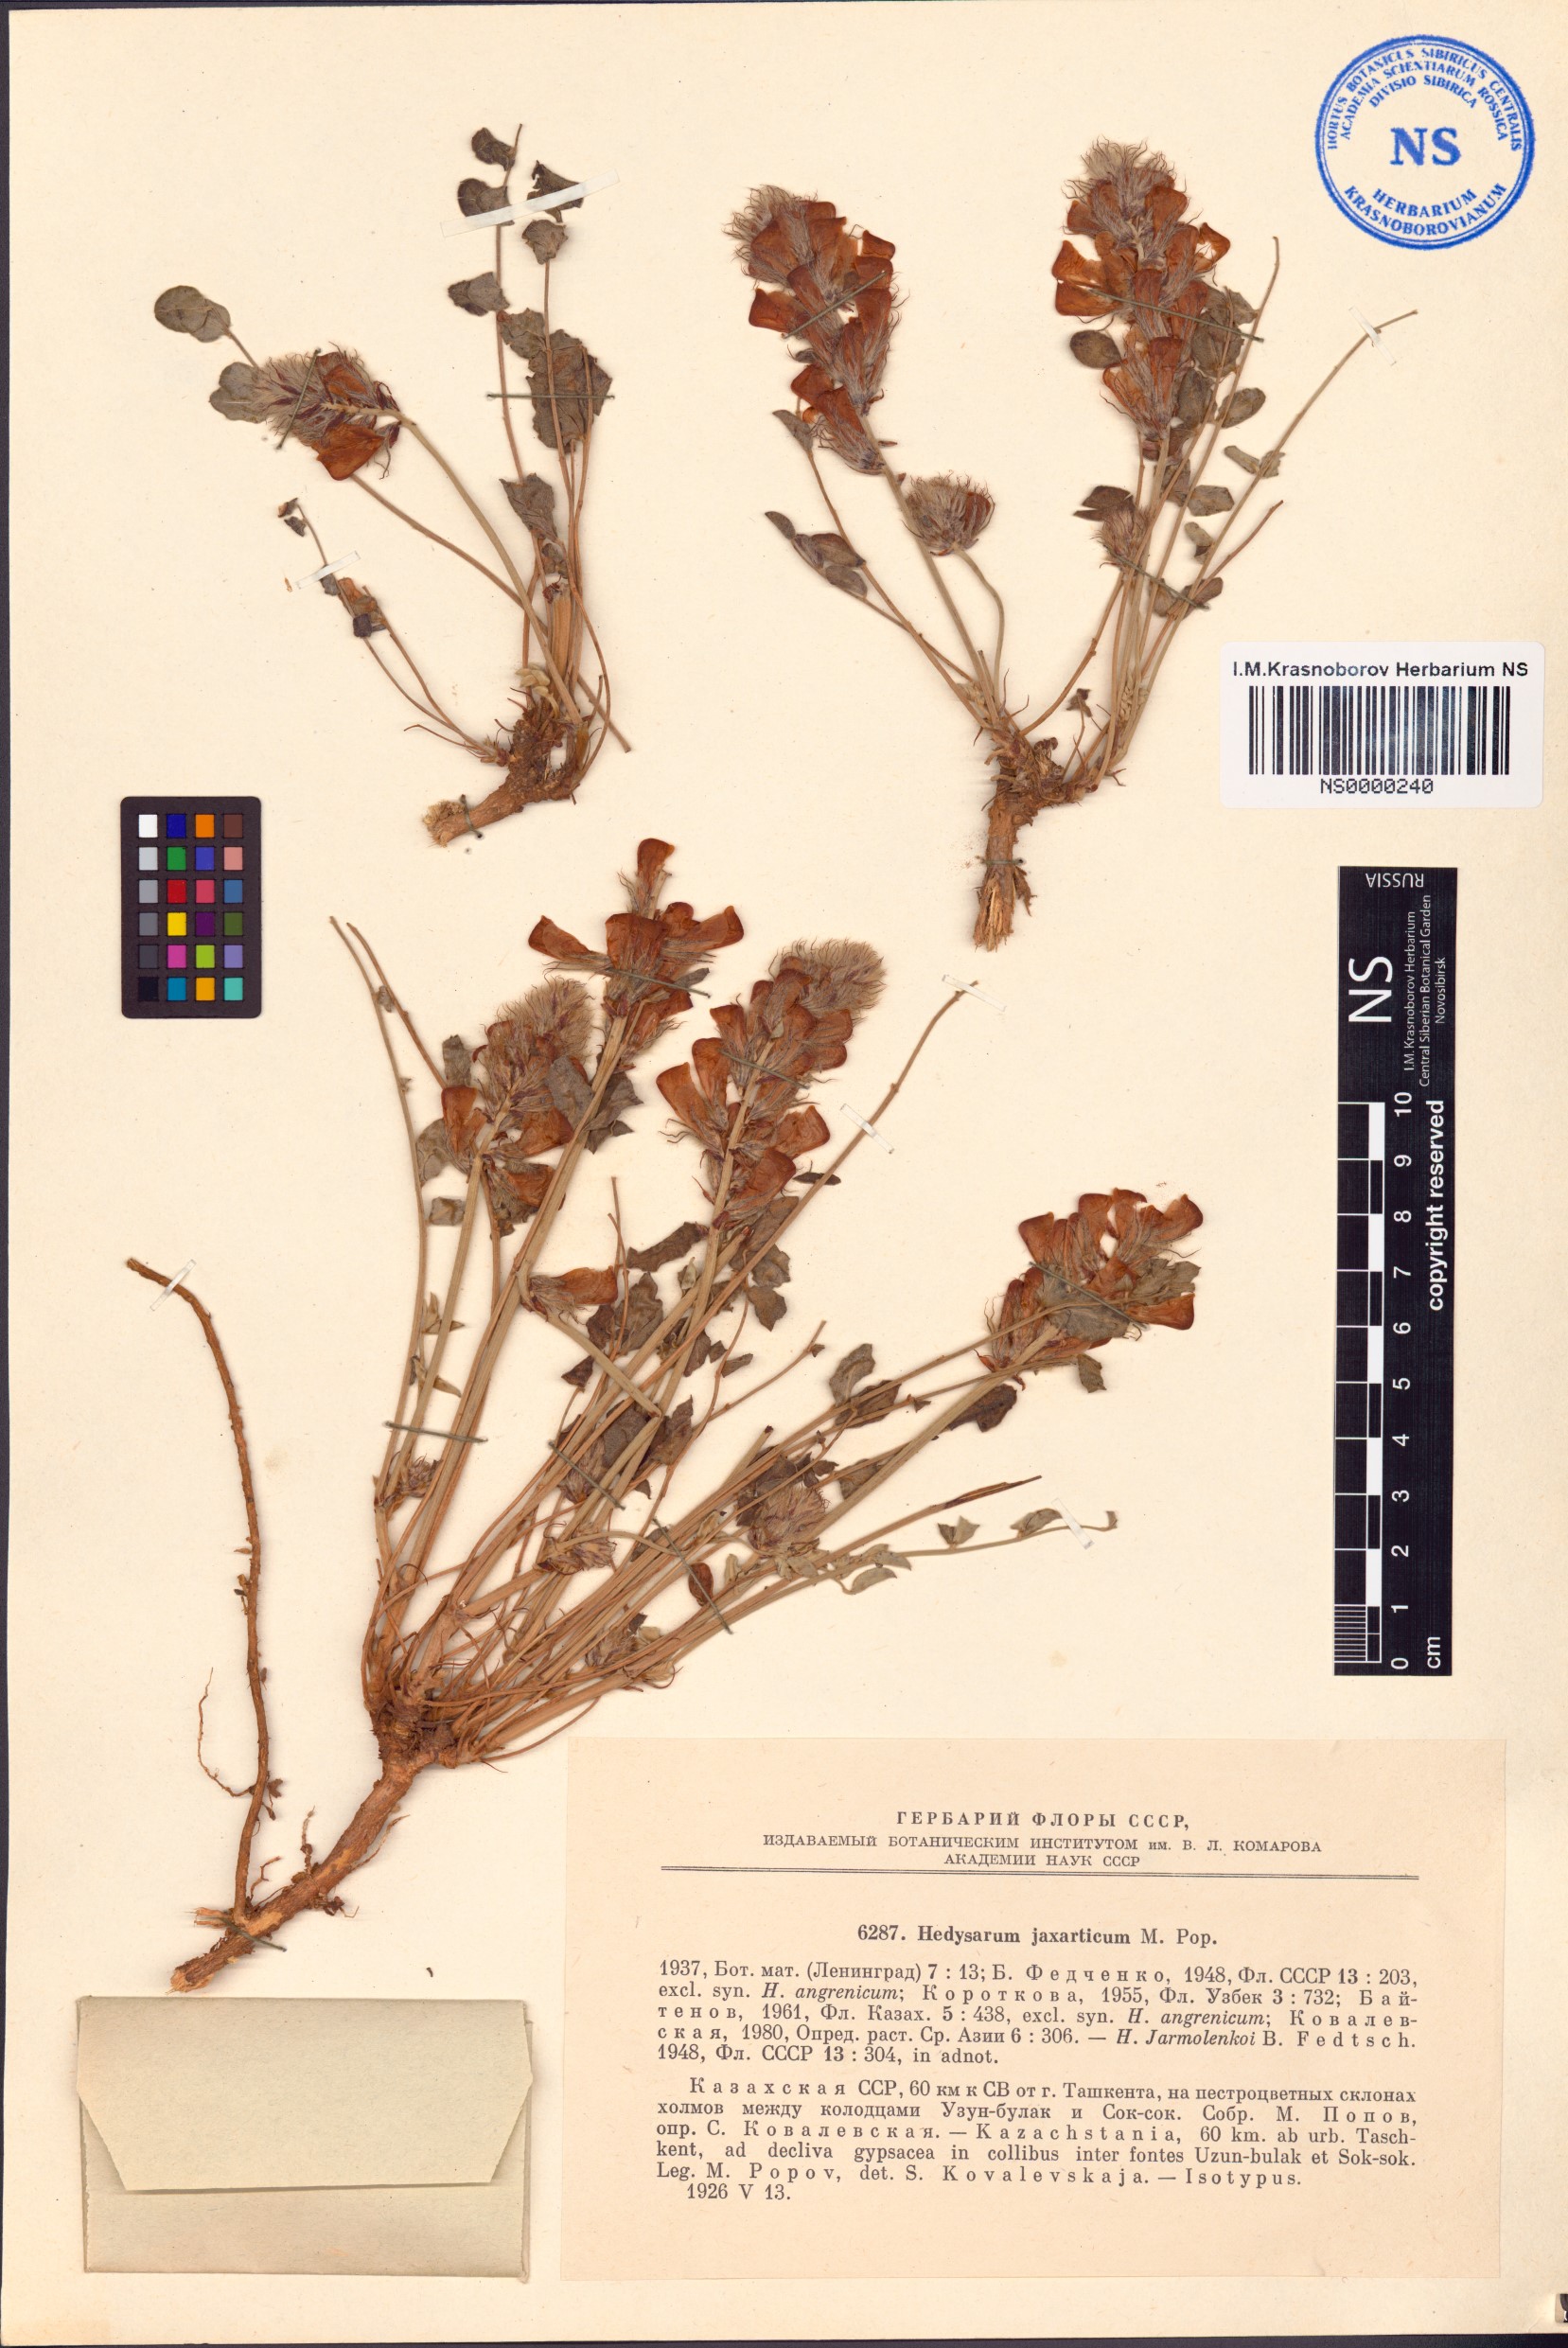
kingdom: Plantae
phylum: Tracheophyta
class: Magnoliopsida
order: Fabales
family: Fabaceae
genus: Hedysarum
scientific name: Hedysarum jaxarticum
